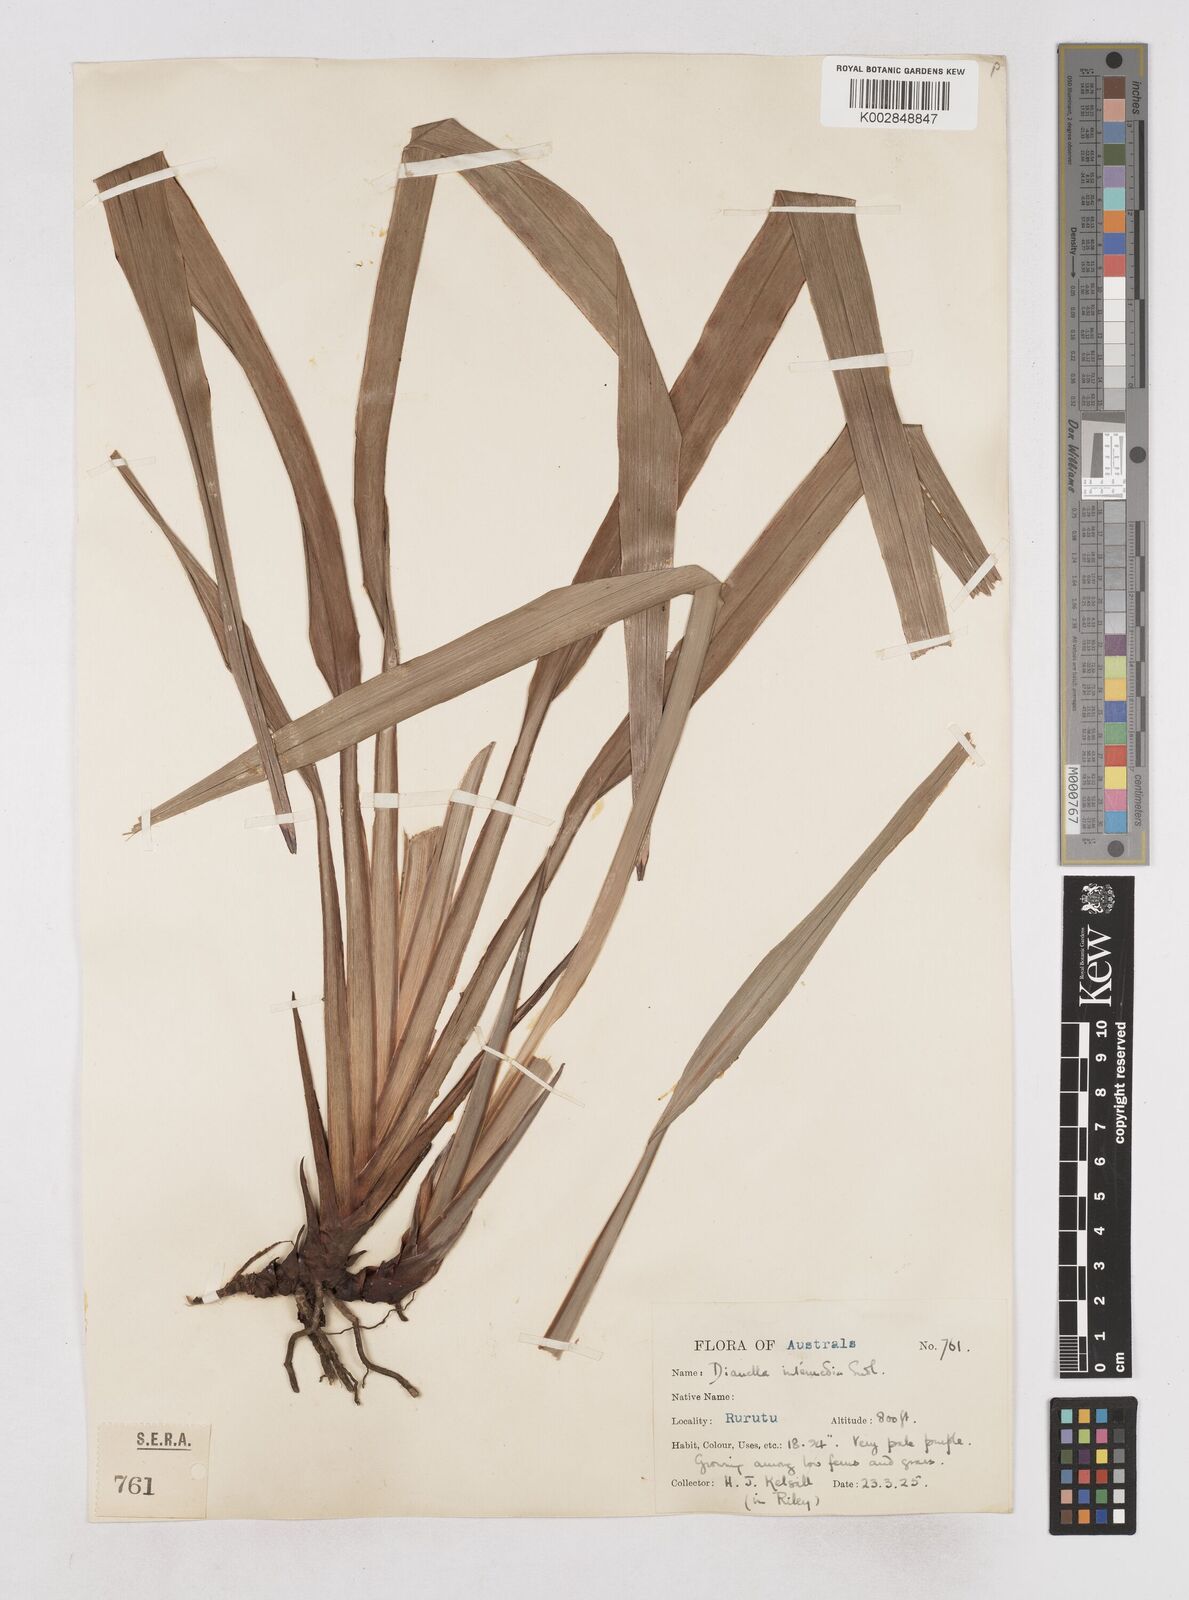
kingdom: Plantae
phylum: Tracheophyta
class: Liliopsida
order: Asparagales
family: Asphodelaceae
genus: Dianella
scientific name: Dianella acutifolia
